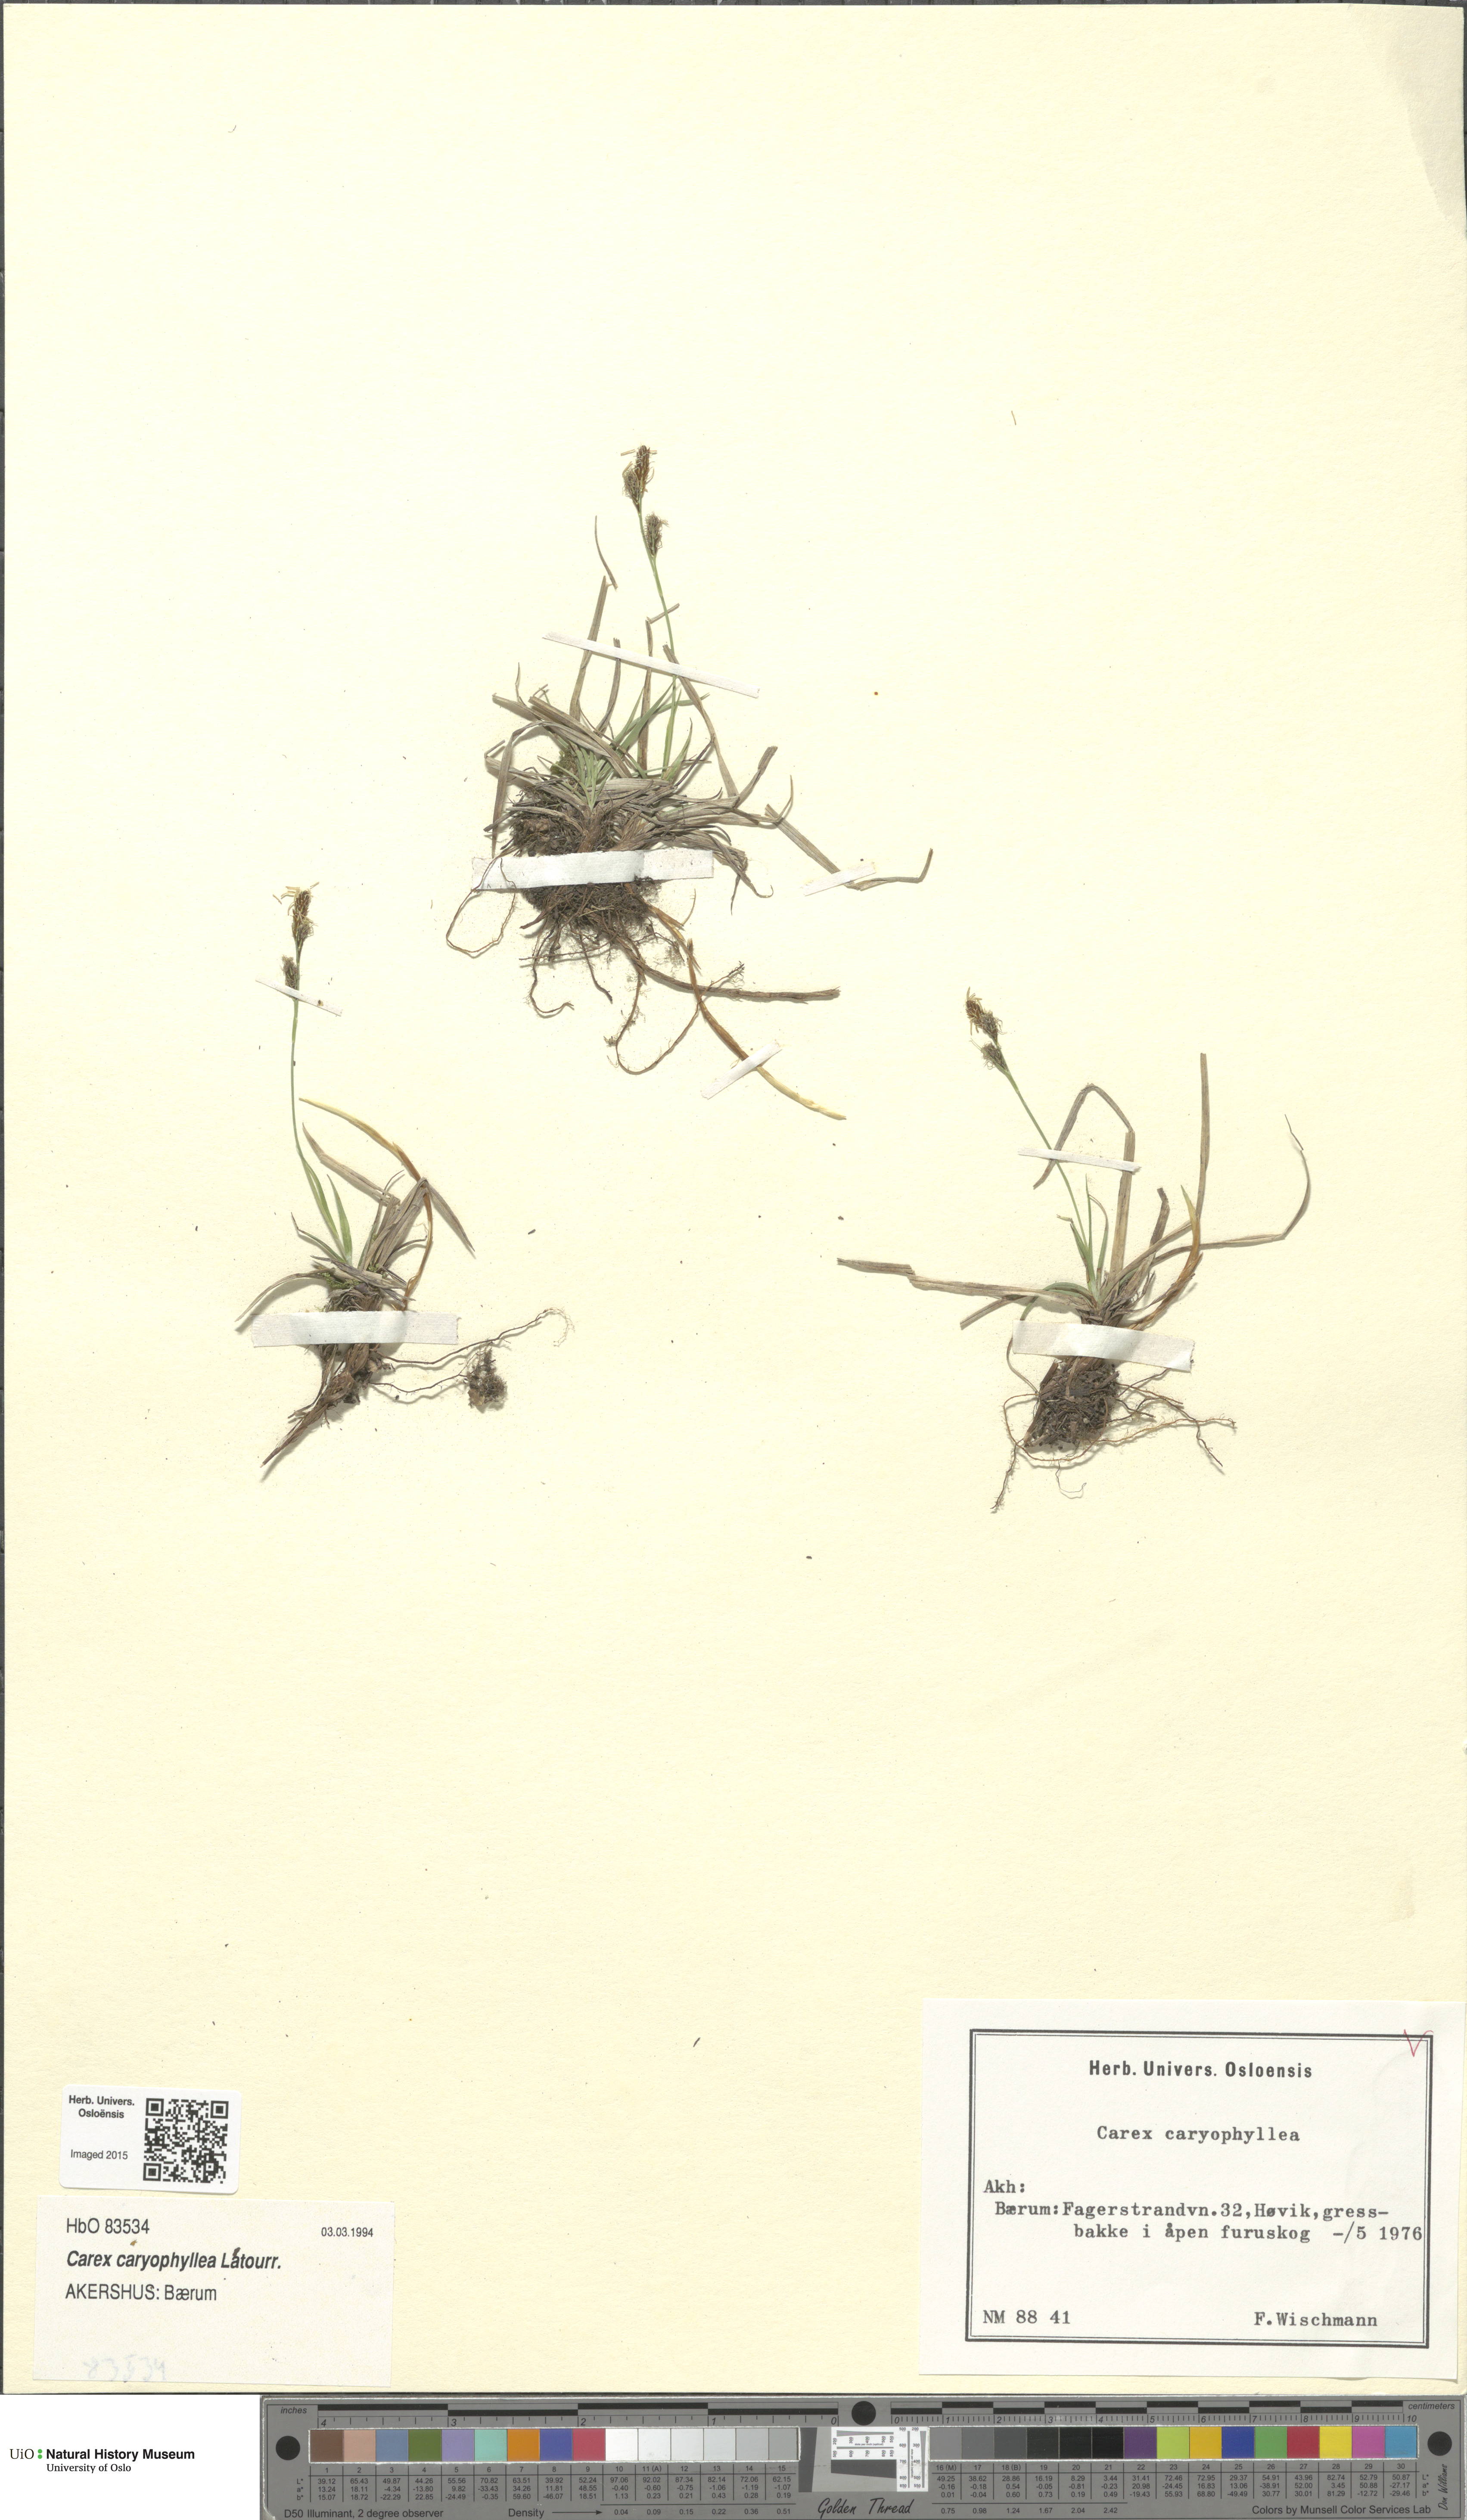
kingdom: Plantae
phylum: Tracheophyta
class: Liliopsida
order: Poales
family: Cyperaceae
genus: Carex
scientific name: Carex caryophyllea
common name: Spring sedge
